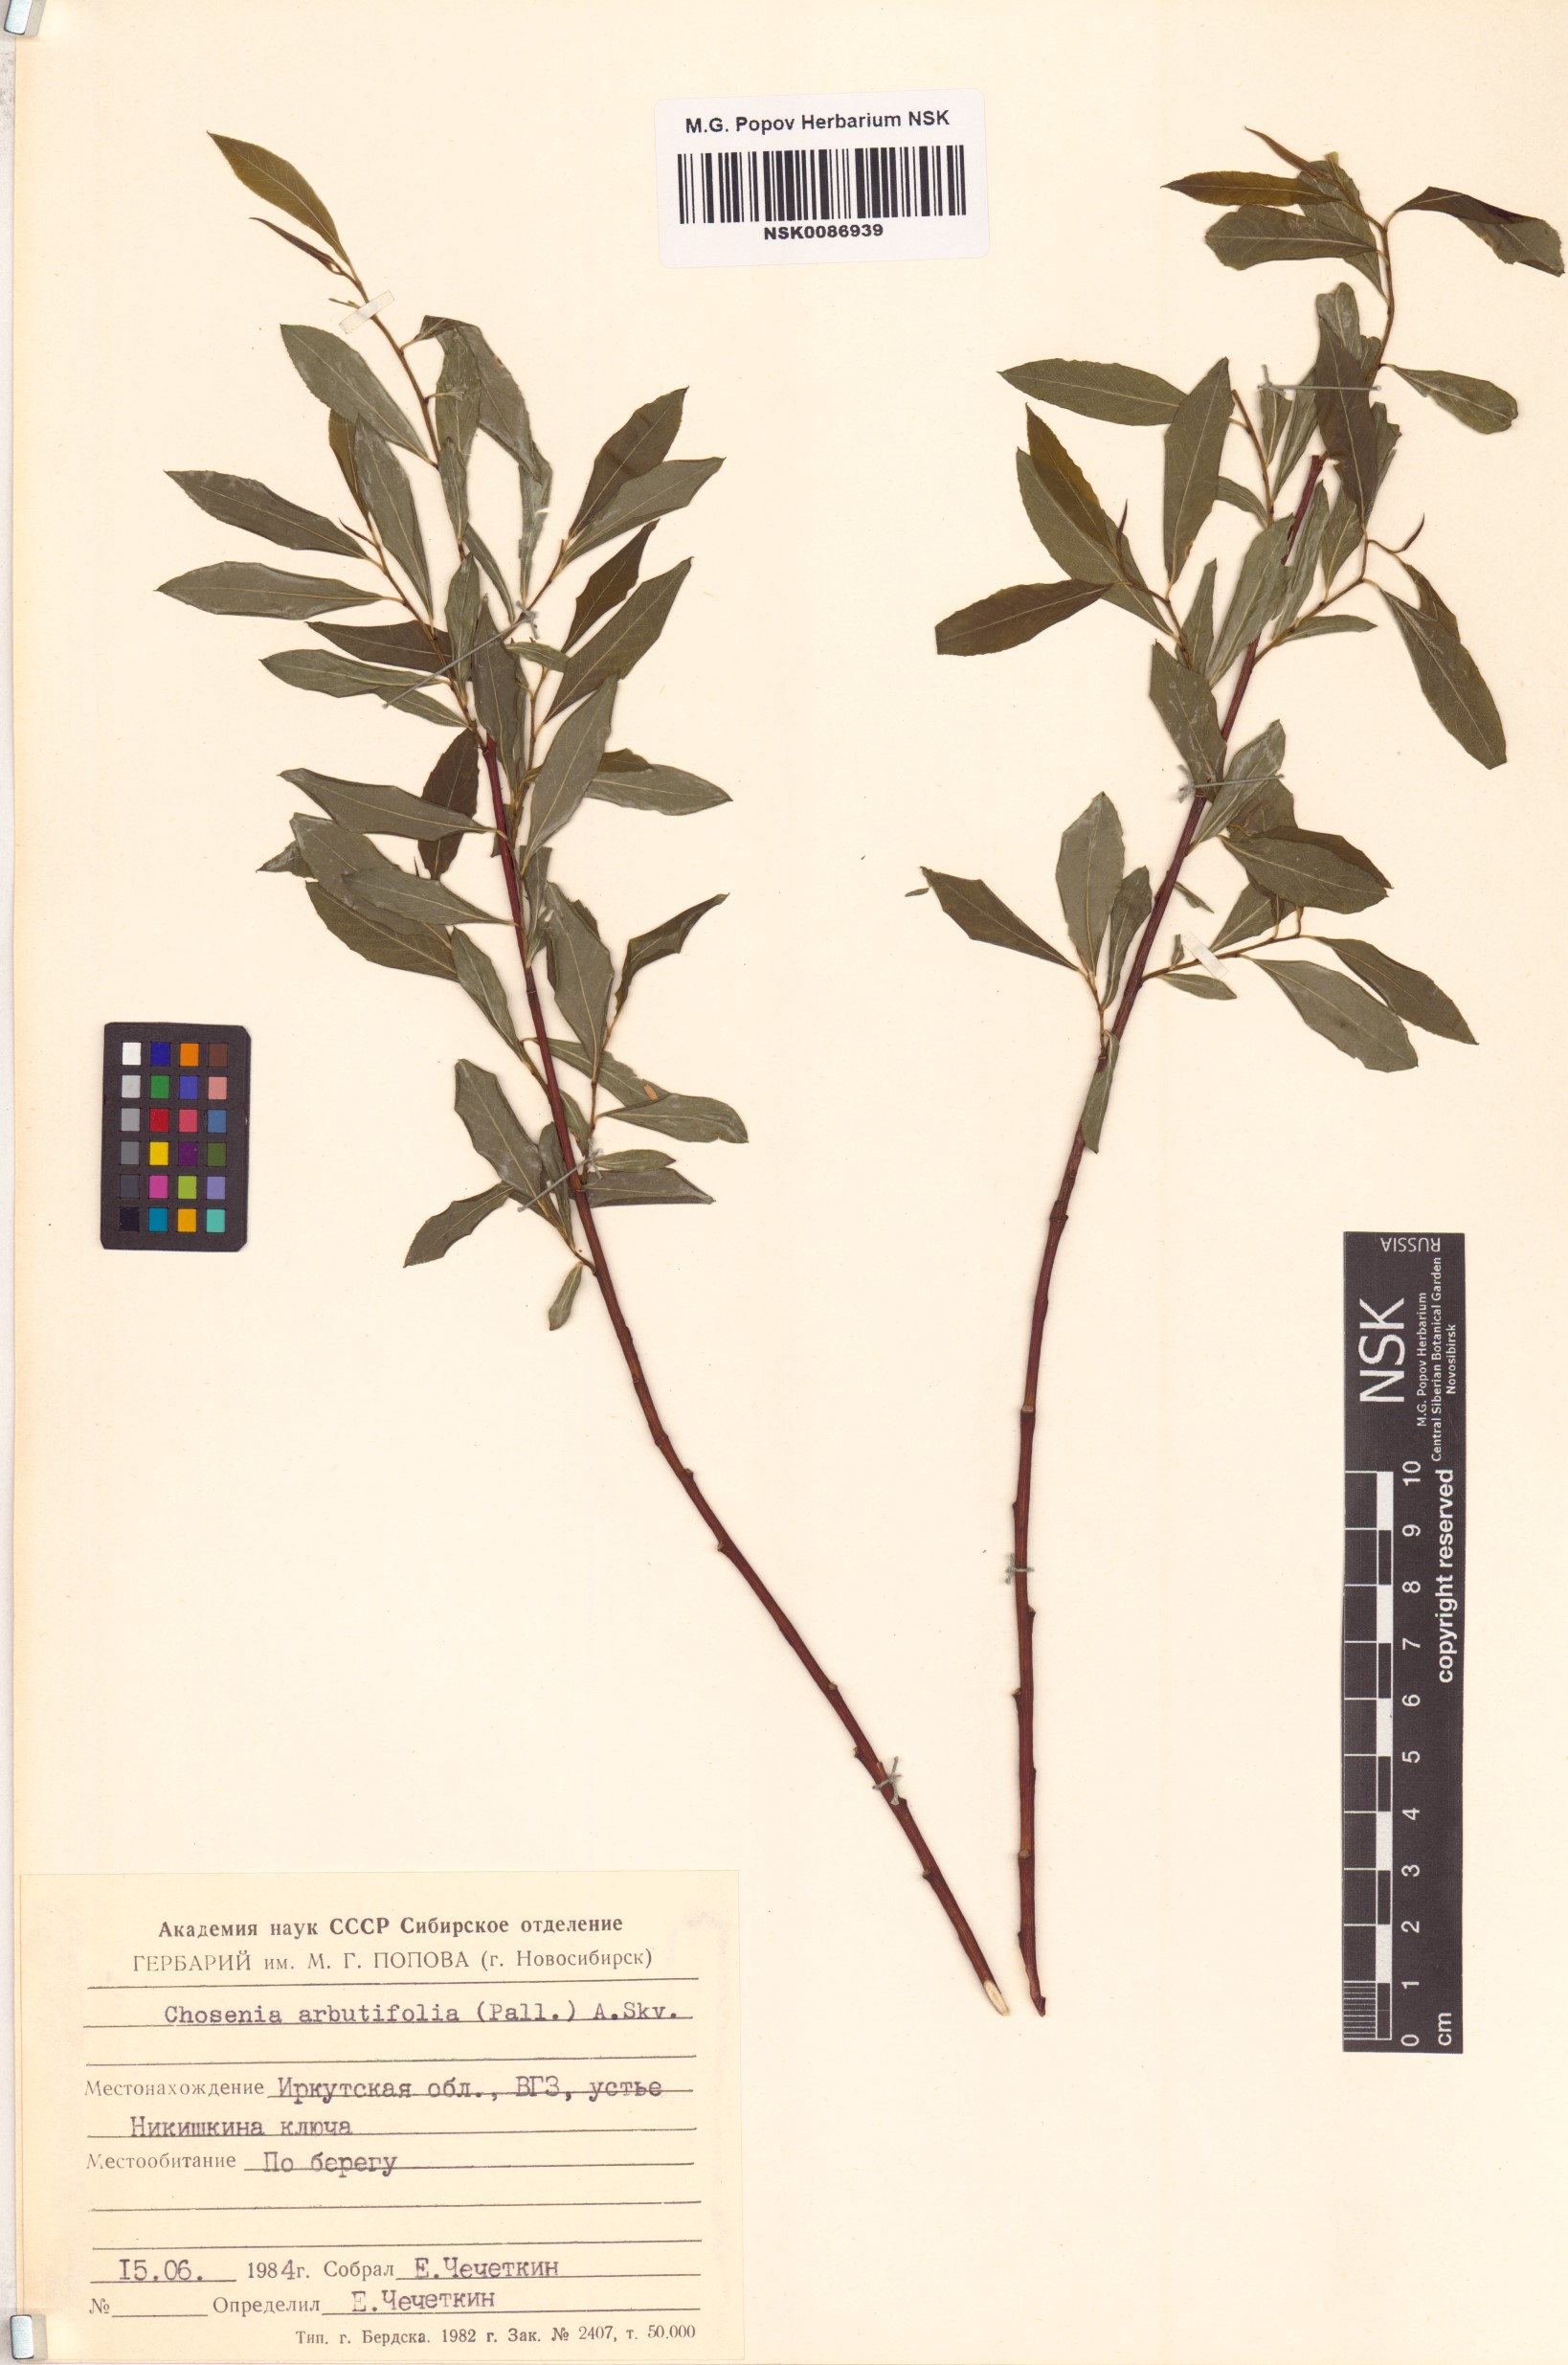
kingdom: Plantae
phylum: Tracheophyta
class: Magnoliopsida
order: Malpighiales
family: Salicaceae
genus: Chosenia
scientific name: Chosenia arbutifolia
